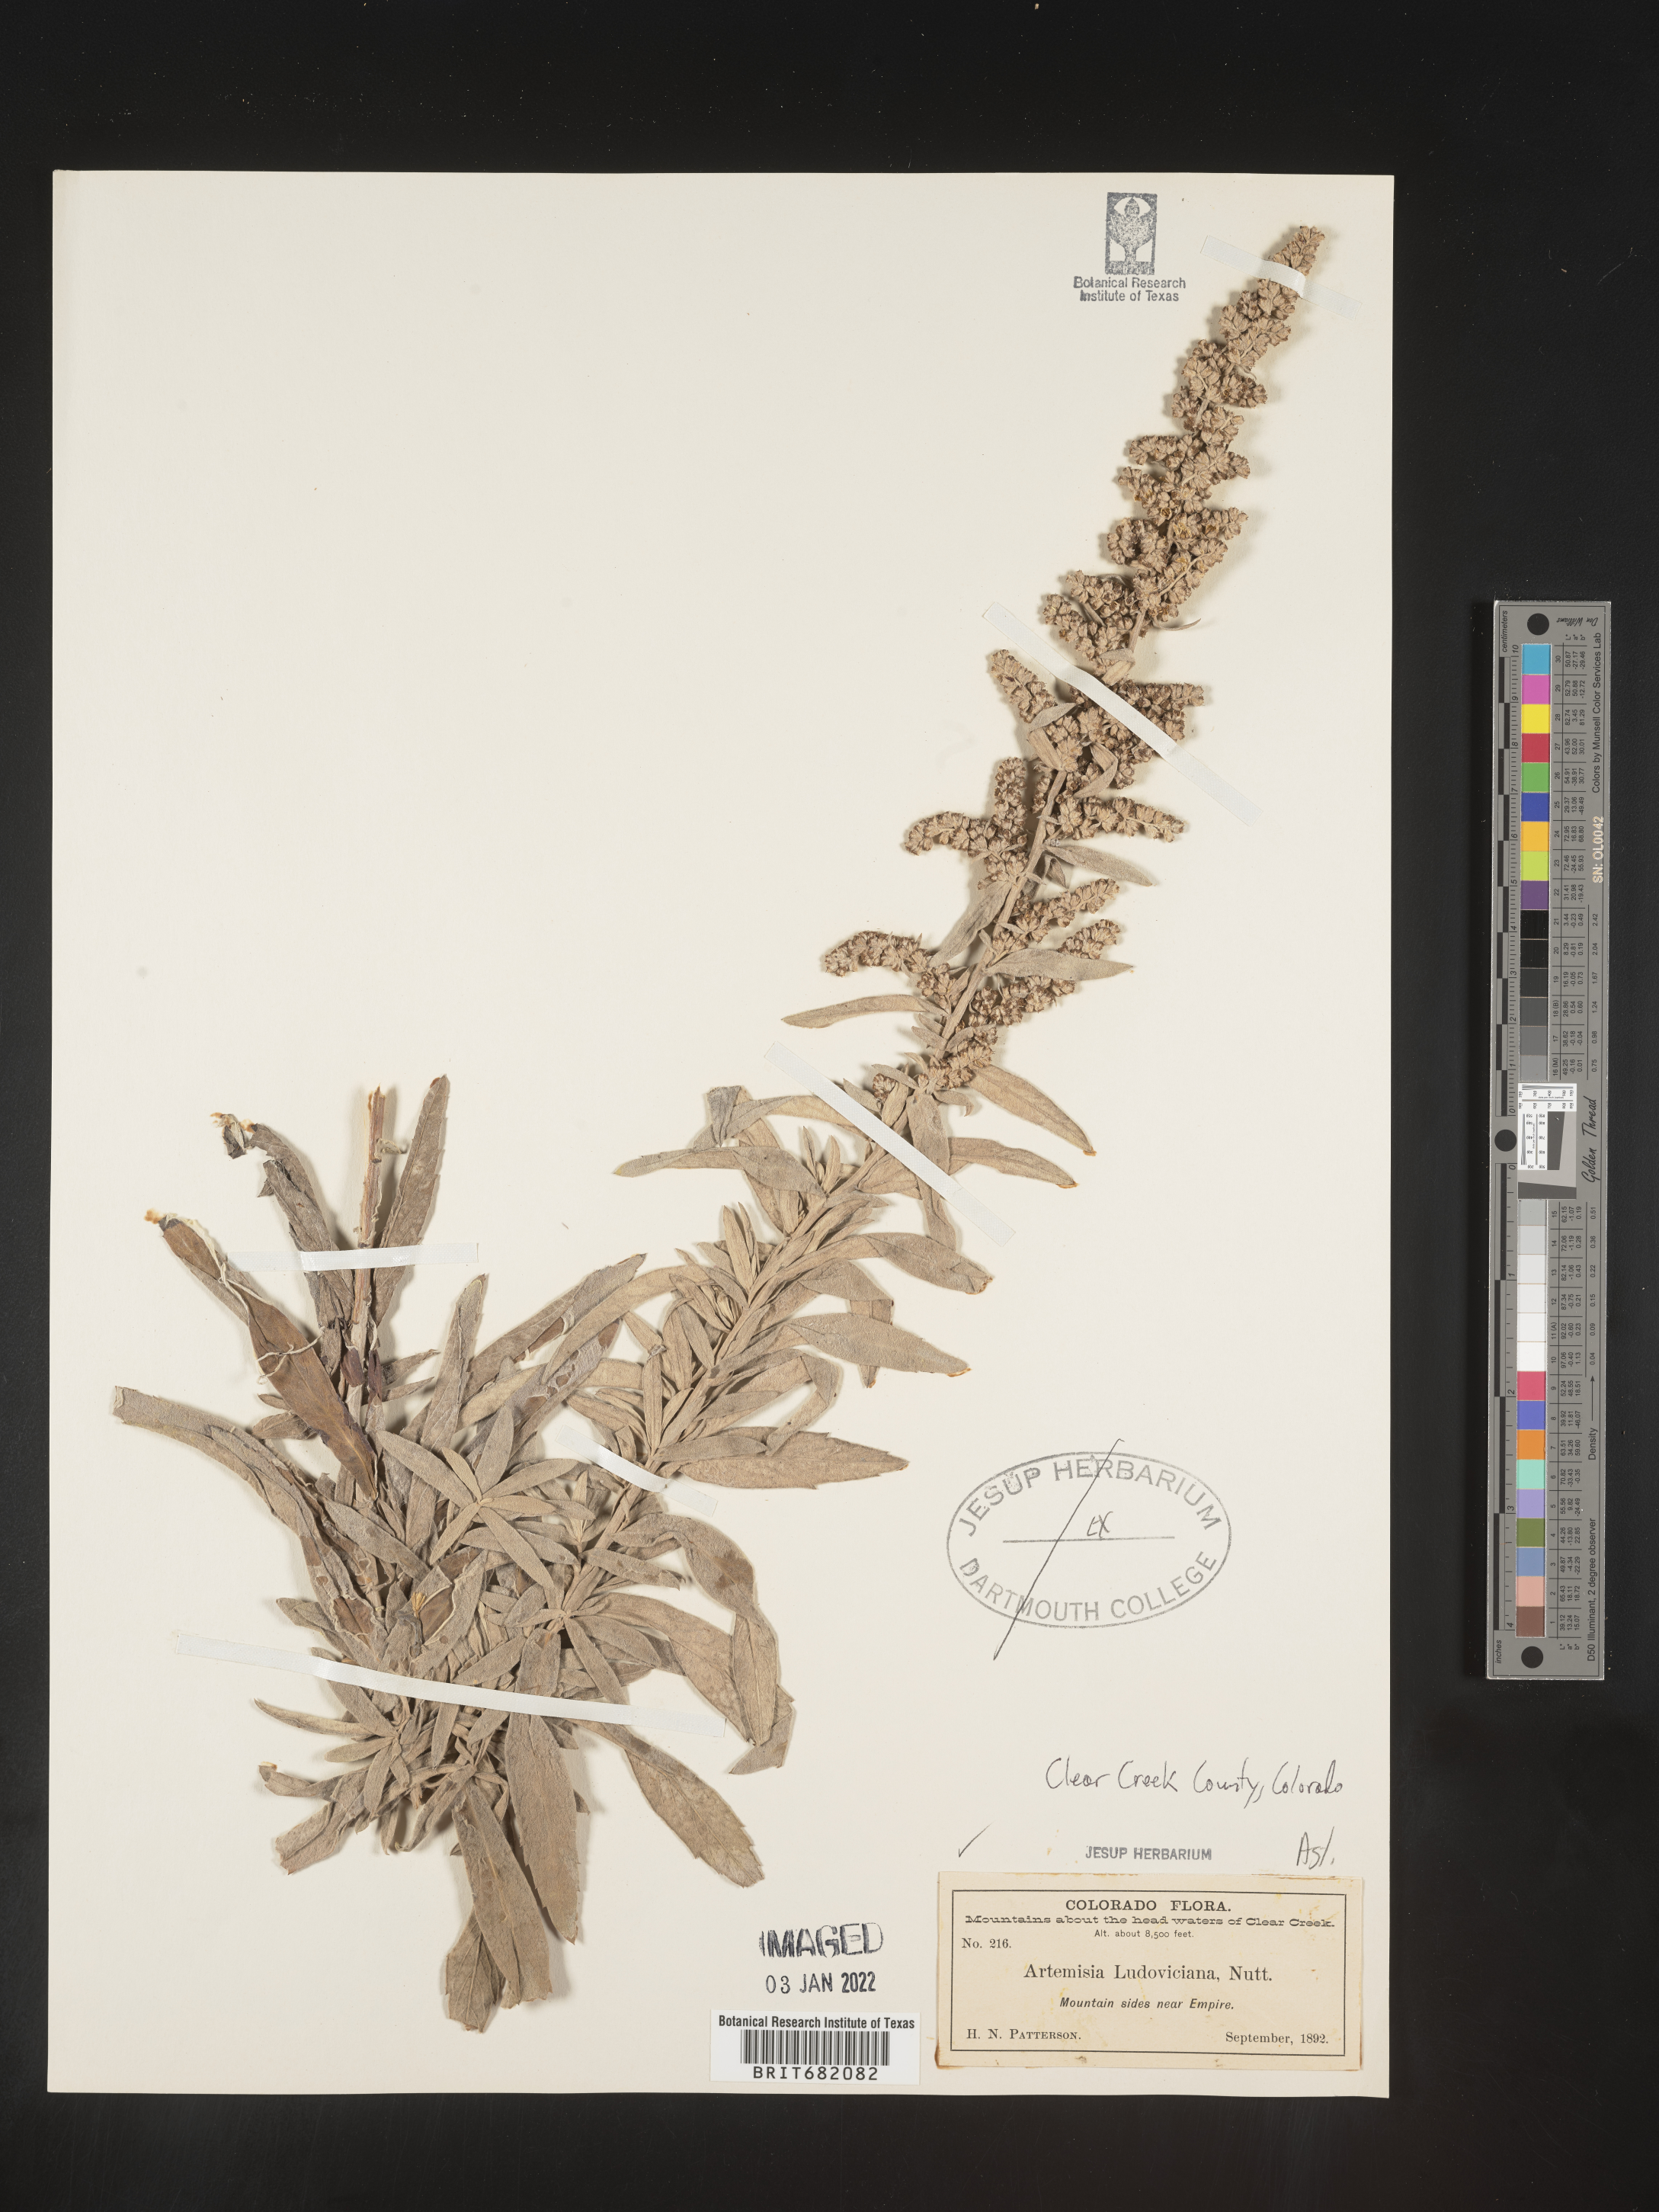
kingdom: Plantae
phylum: Tracheophyta
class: Magnoliopsida
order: Asterales
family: Asteraceae
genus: Artemisia
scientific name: Artemisia ludoviciana
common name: Western mugwort
